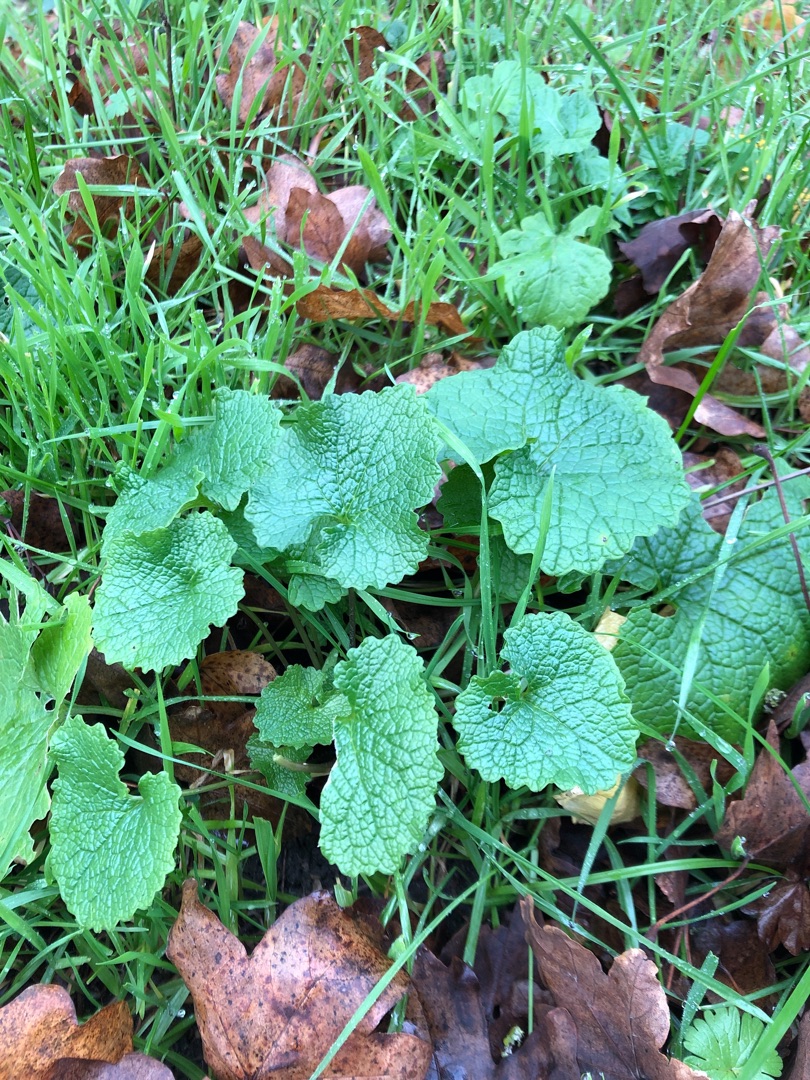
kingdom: Plantae
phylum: Tracheophyta
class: Magnoliopsida
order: Brassicales
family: Brassicaceae
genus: Alliaria
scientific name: Alliaria petiolata
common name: Løgkarse
